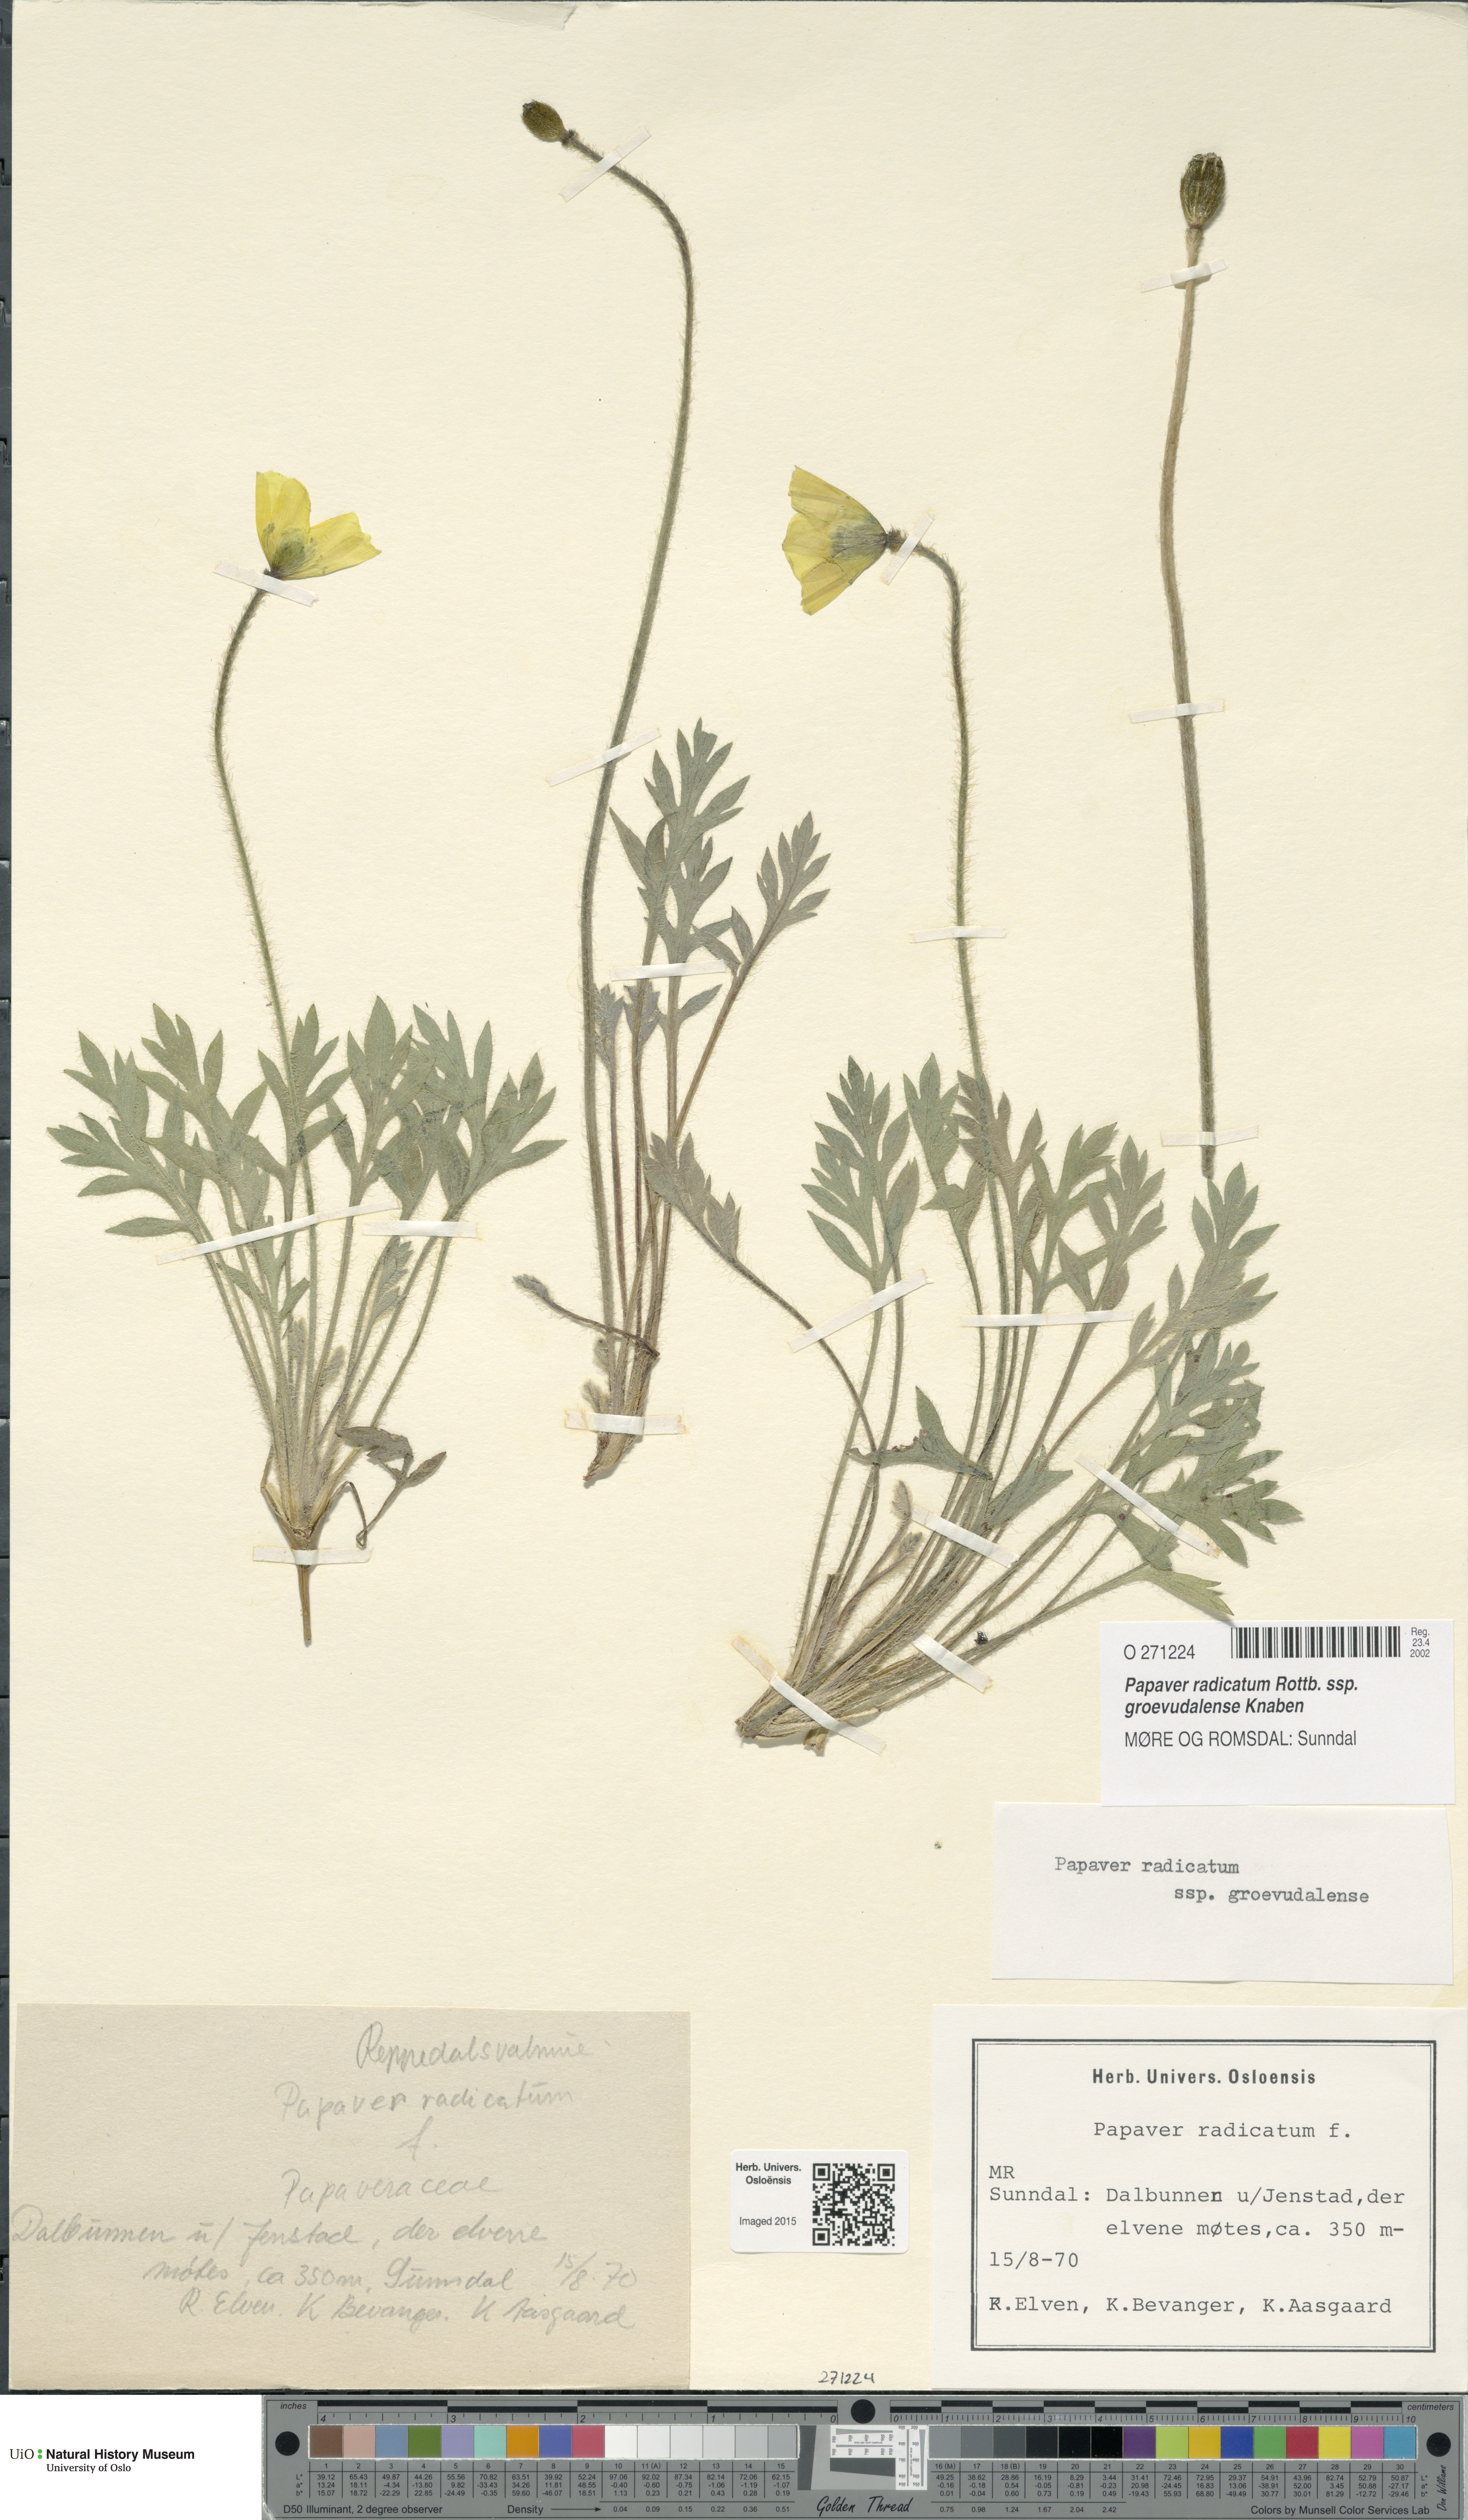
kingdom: Plantae
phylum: Tracheophyta
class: Magnoliopsida
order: Ranunculales
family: Papaveraceae
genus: Papaver
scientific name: Papaver radicatum
